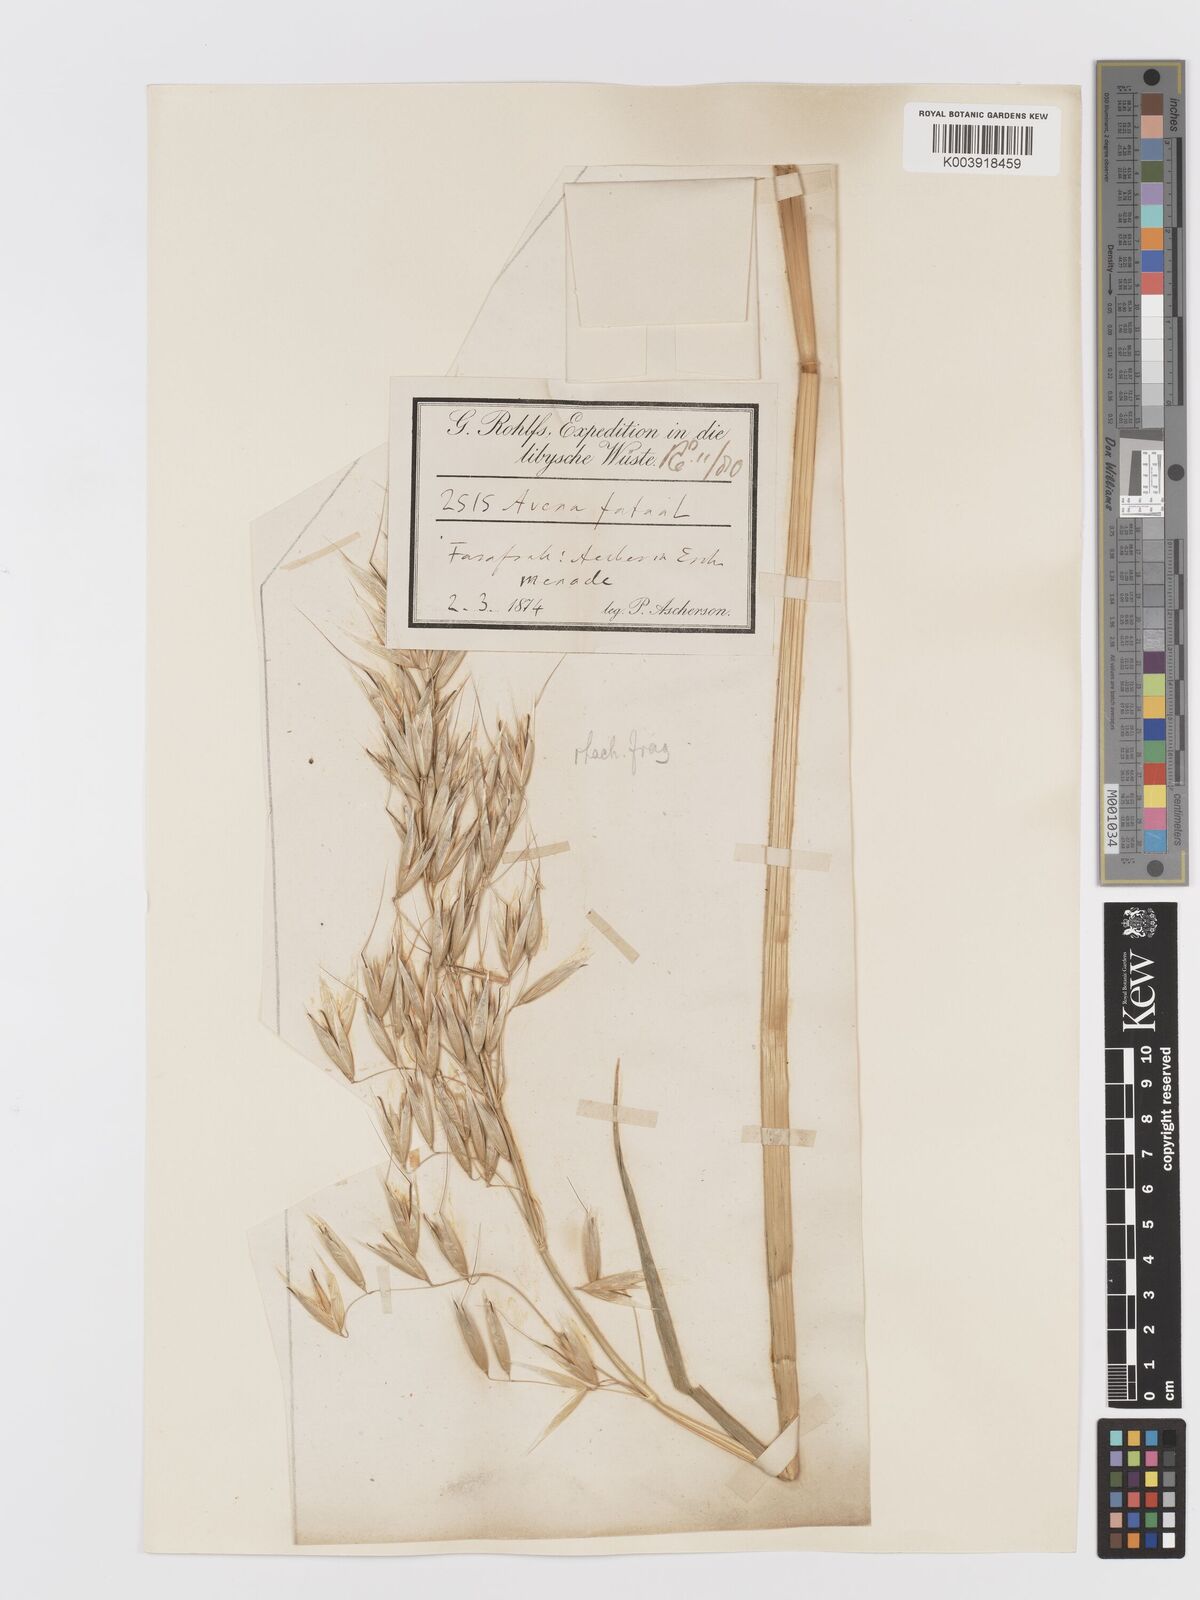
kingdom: Plantae
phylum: Tracheophyta
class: Liliopsida
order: Poales
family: Poaceae
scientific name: Poaceae
